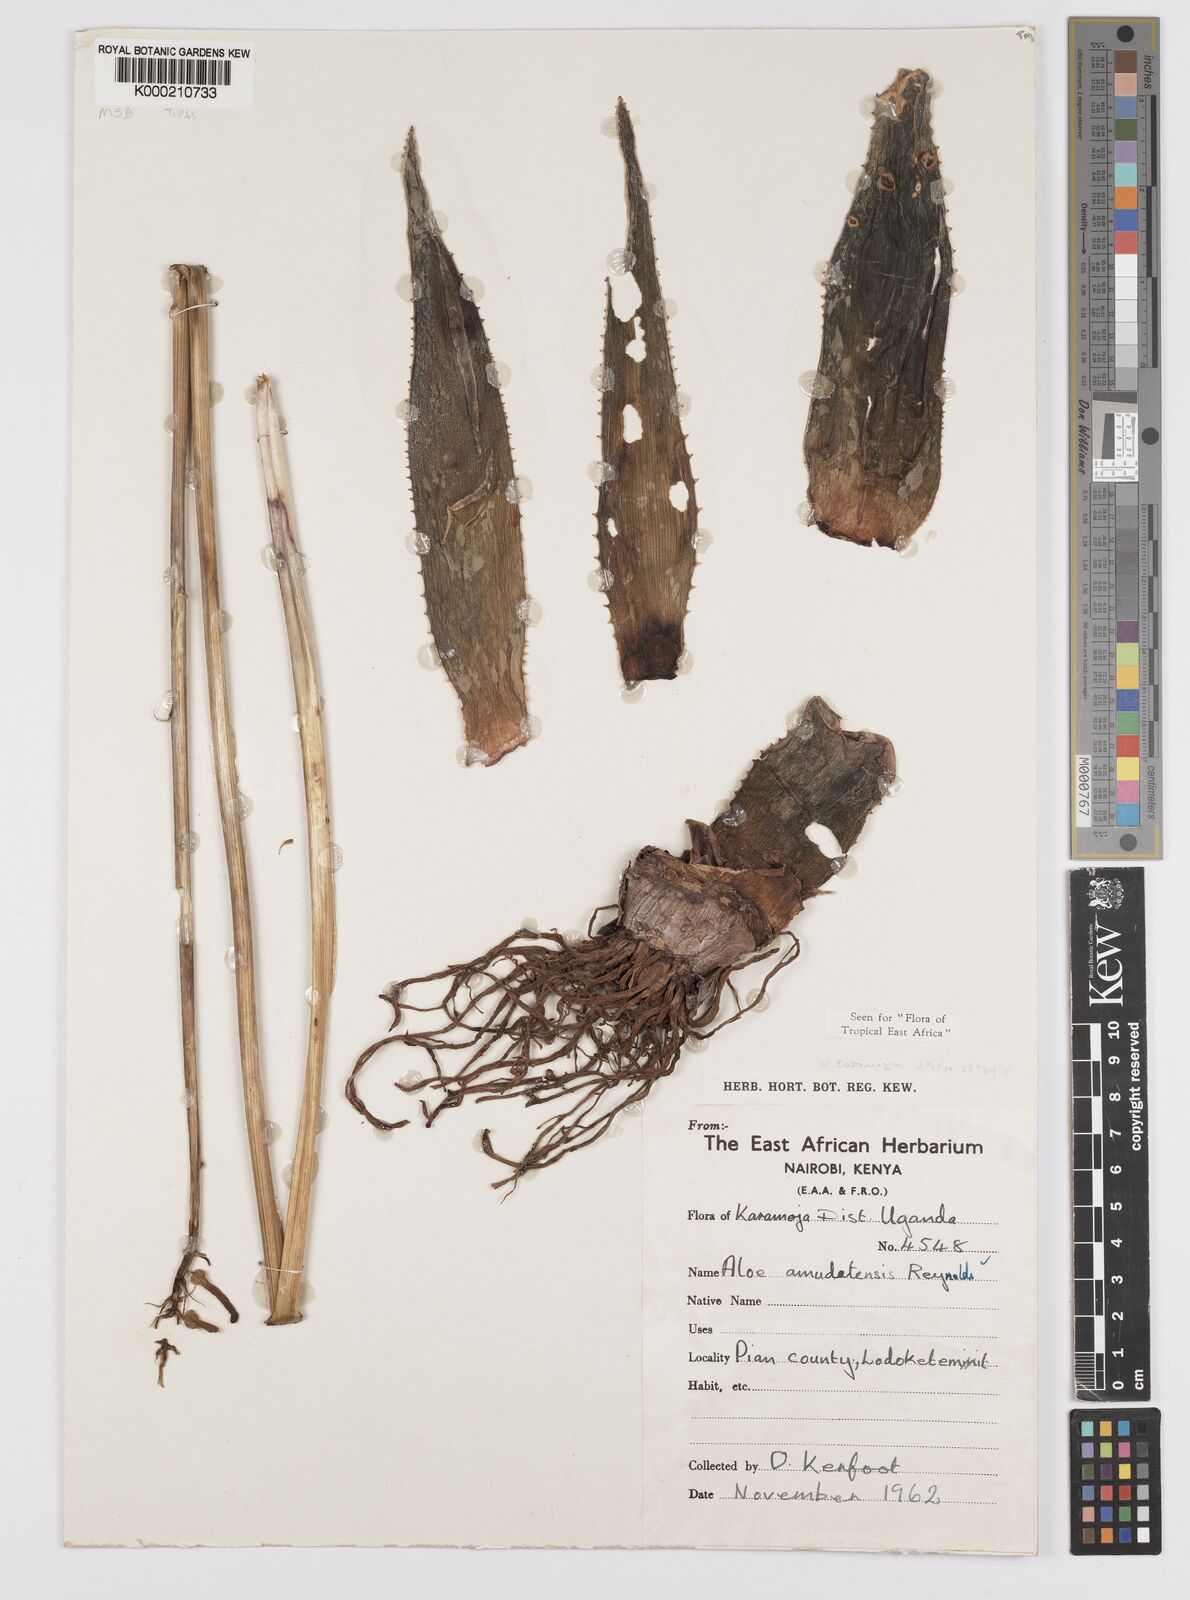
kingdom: Plantae
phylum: Tracheophyta
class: Liliopsida
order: Asparagales
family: Asphodelaceae
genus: Aloe
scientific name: Aloe amudatensis
